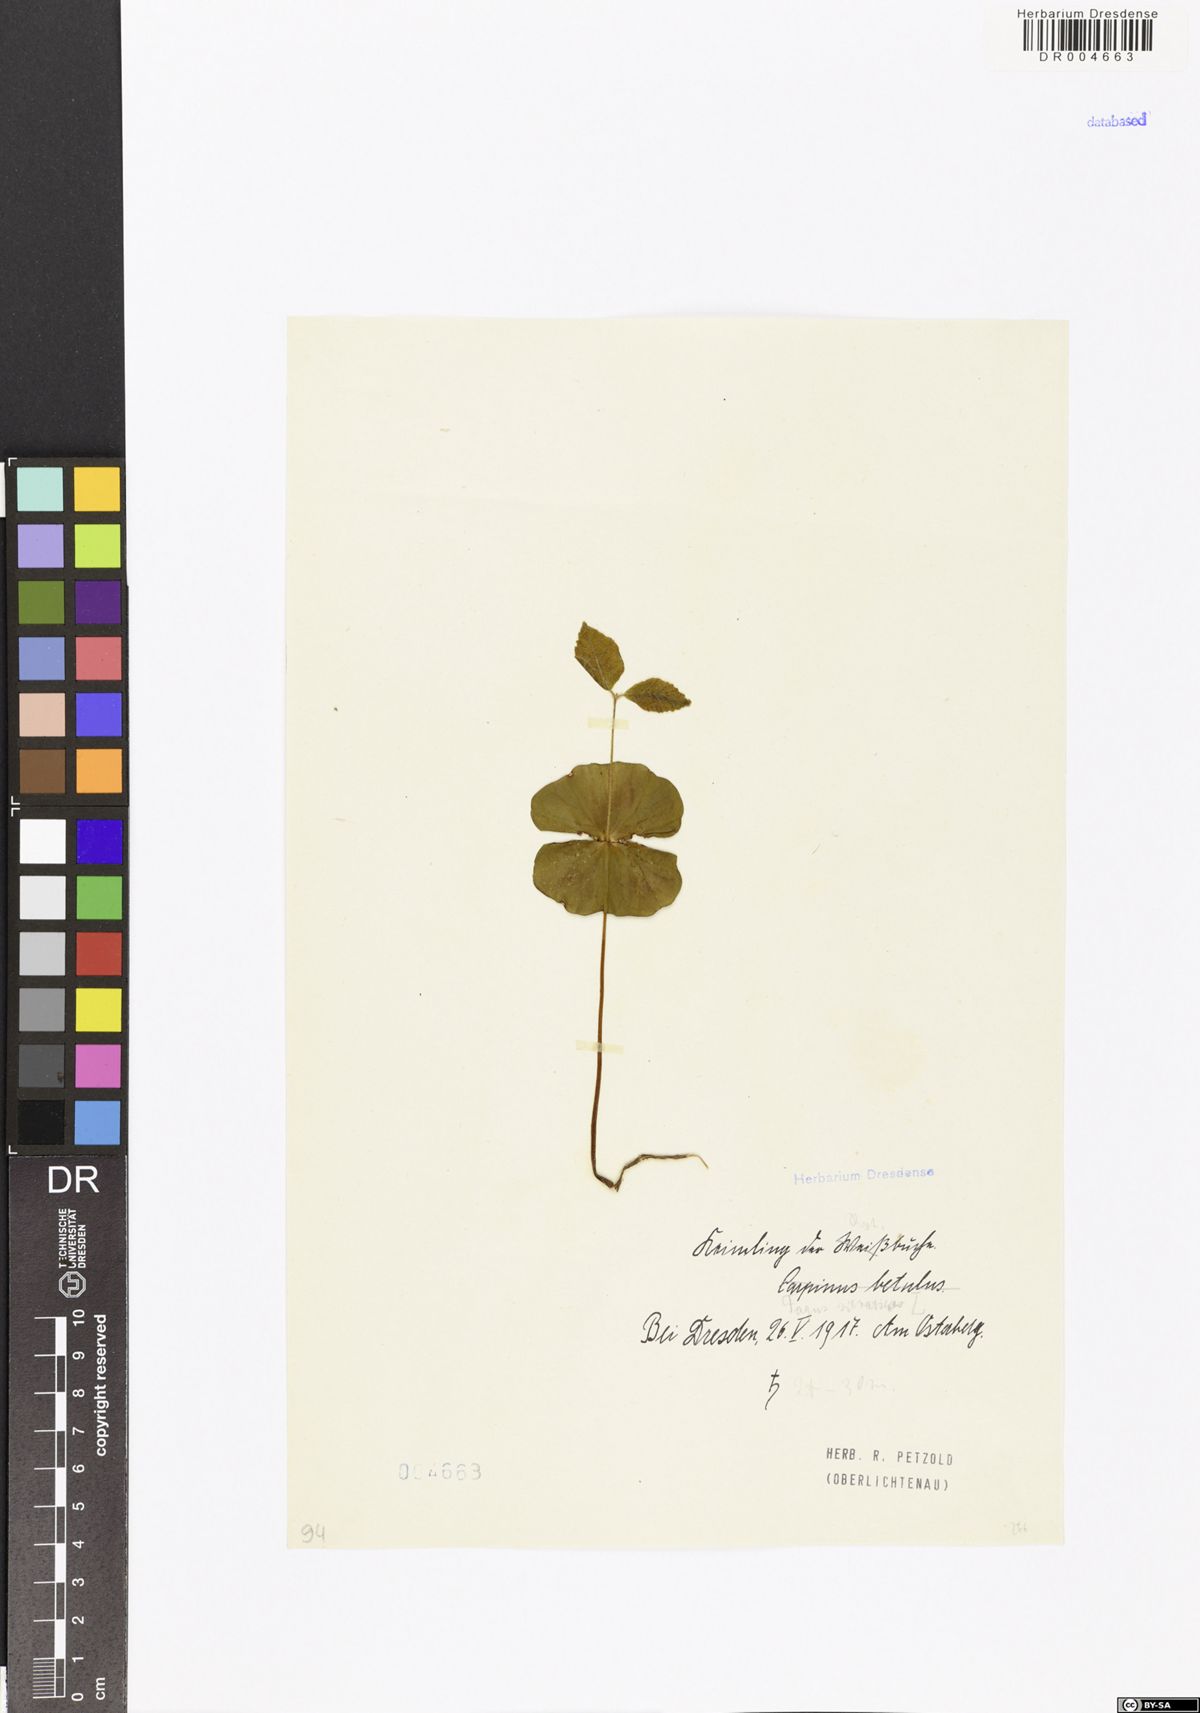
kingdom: Plantae
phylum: Tracheophyta
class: Magnoliopsida
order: Fagales
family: Fagaceae
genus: Fagus
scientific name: Fagus sylvatica
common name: Beech
